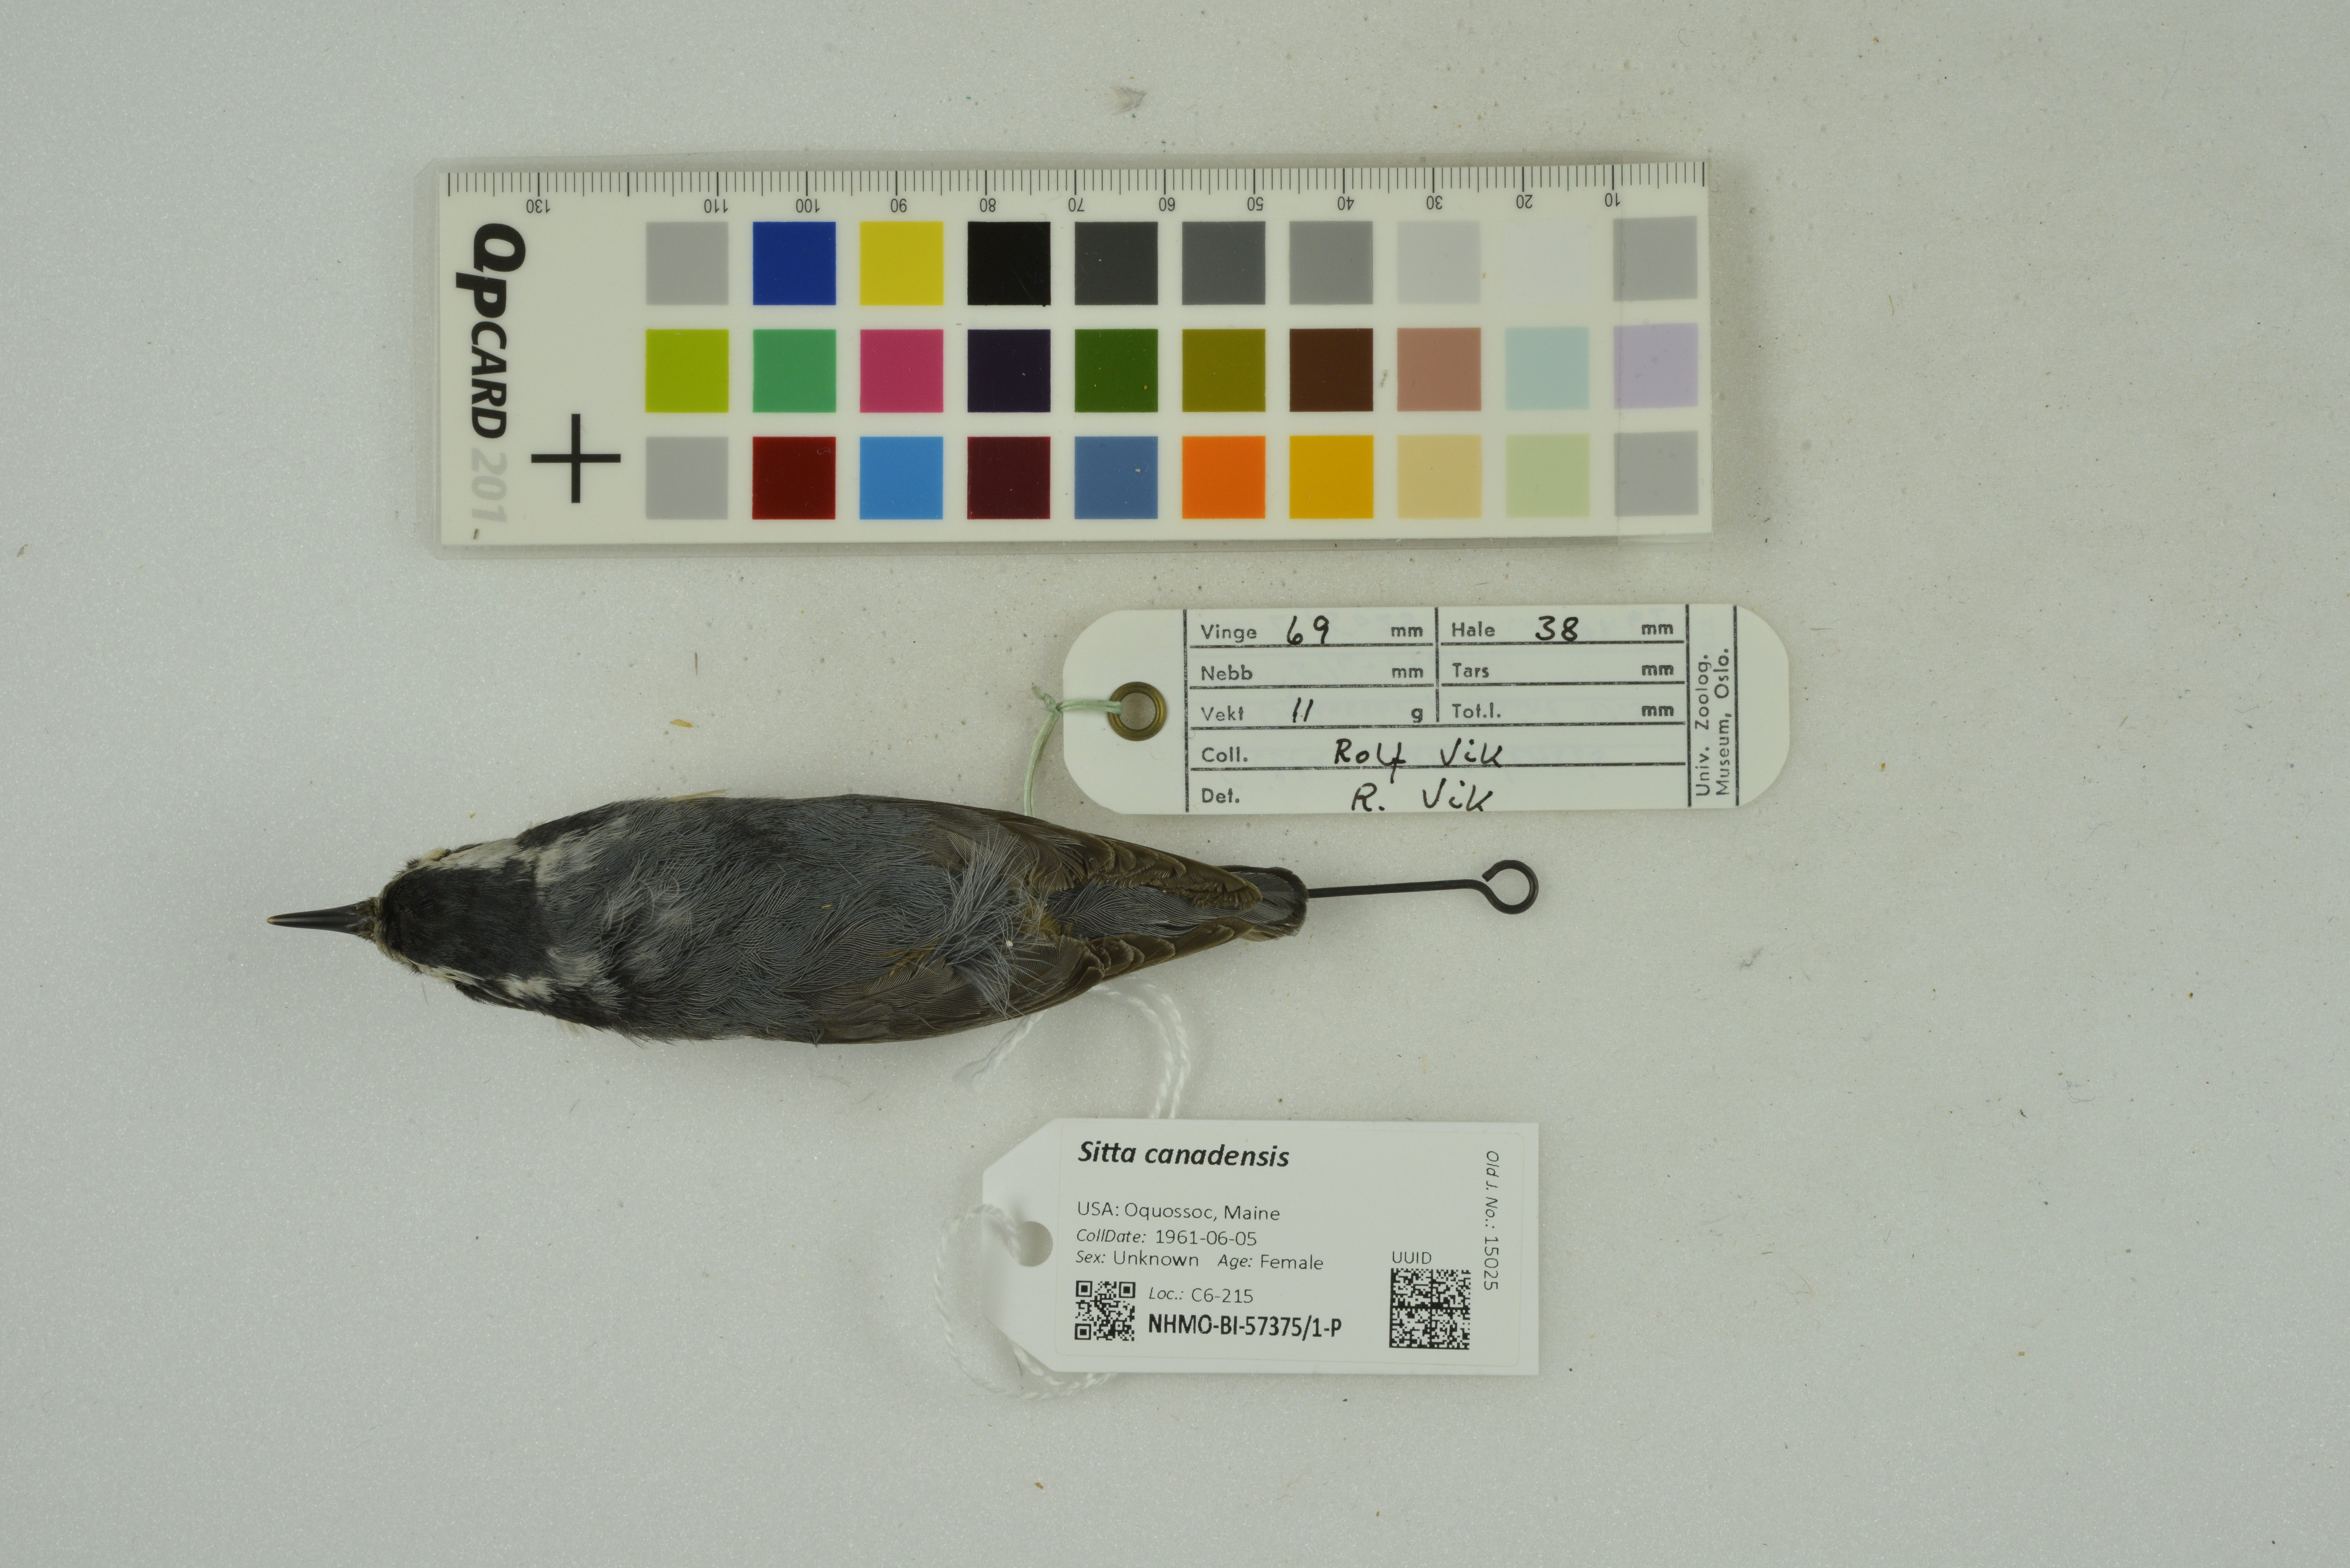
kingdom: Animalia
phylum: Chordata
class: Aves
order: Passeriformes
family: Sittidae
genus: Sitta
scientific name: Sitta canadensis
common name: Red-breasted nuthatch
